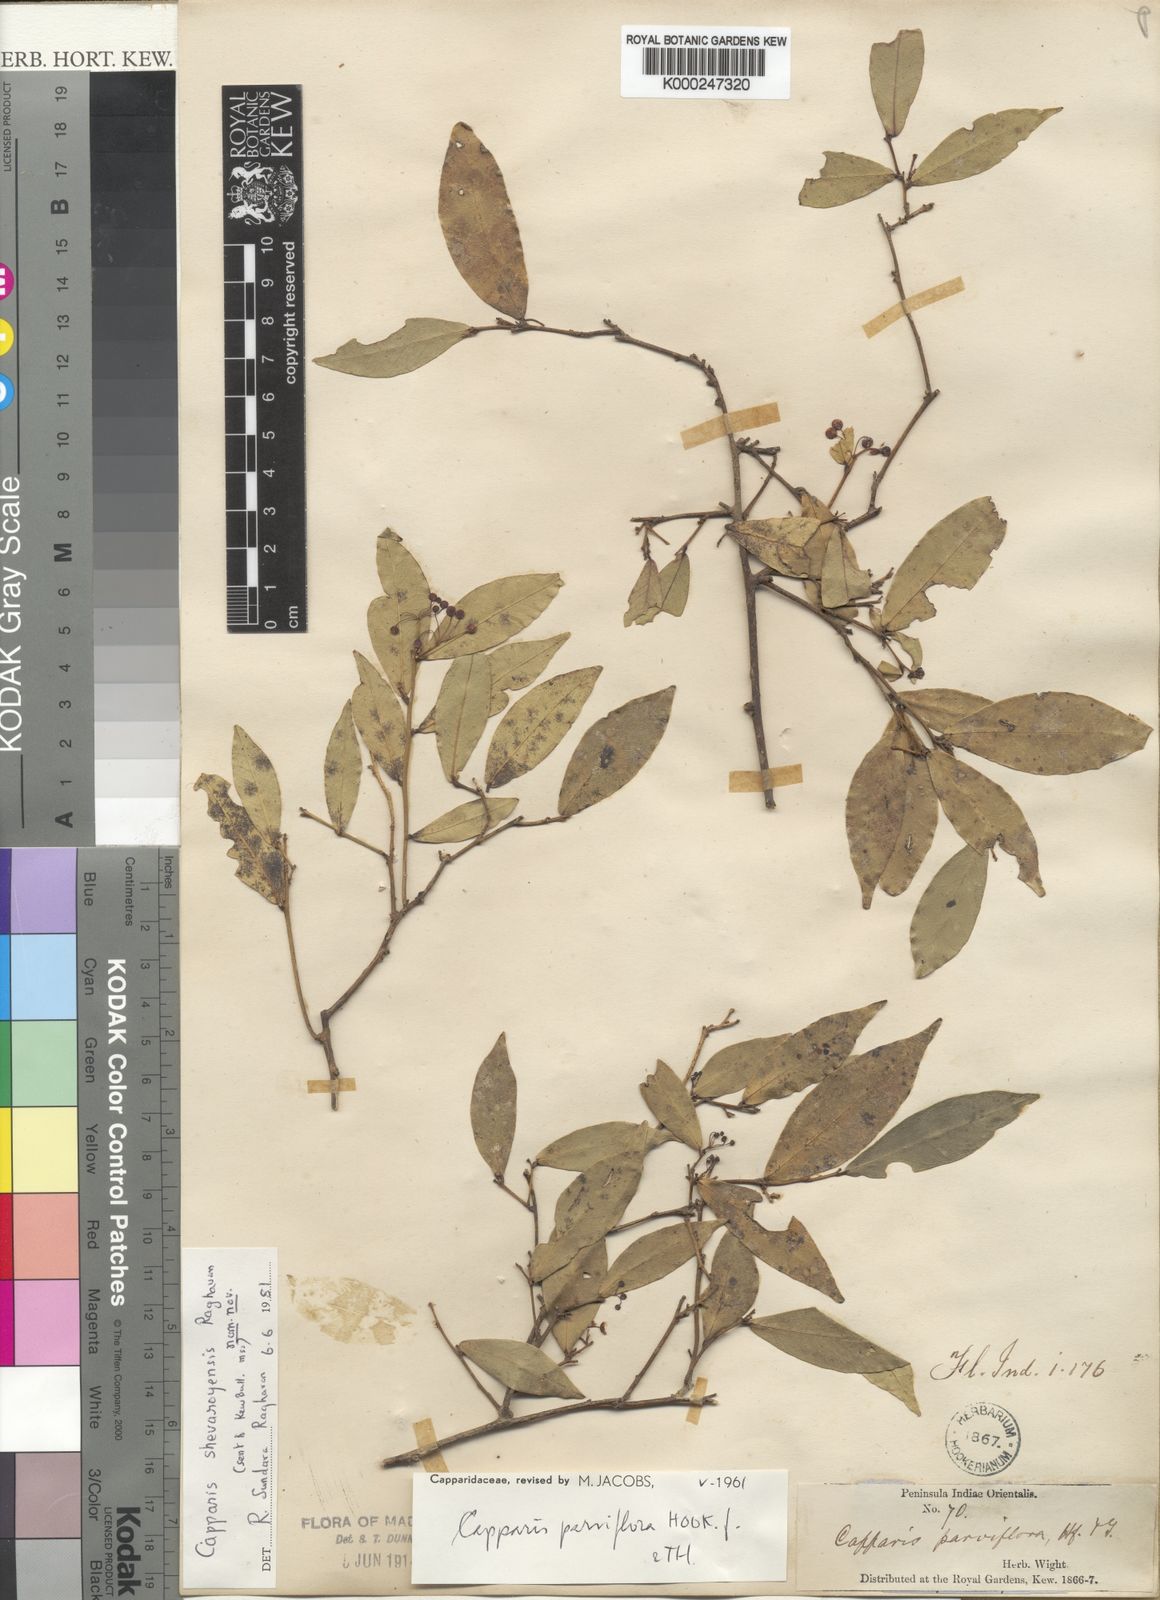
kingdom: Plantae
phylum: Tracheophyta
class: Magnoliopsida
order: Brassicales
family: Capparaceae
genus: Capparis
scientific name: Capparis shevaroyensis
